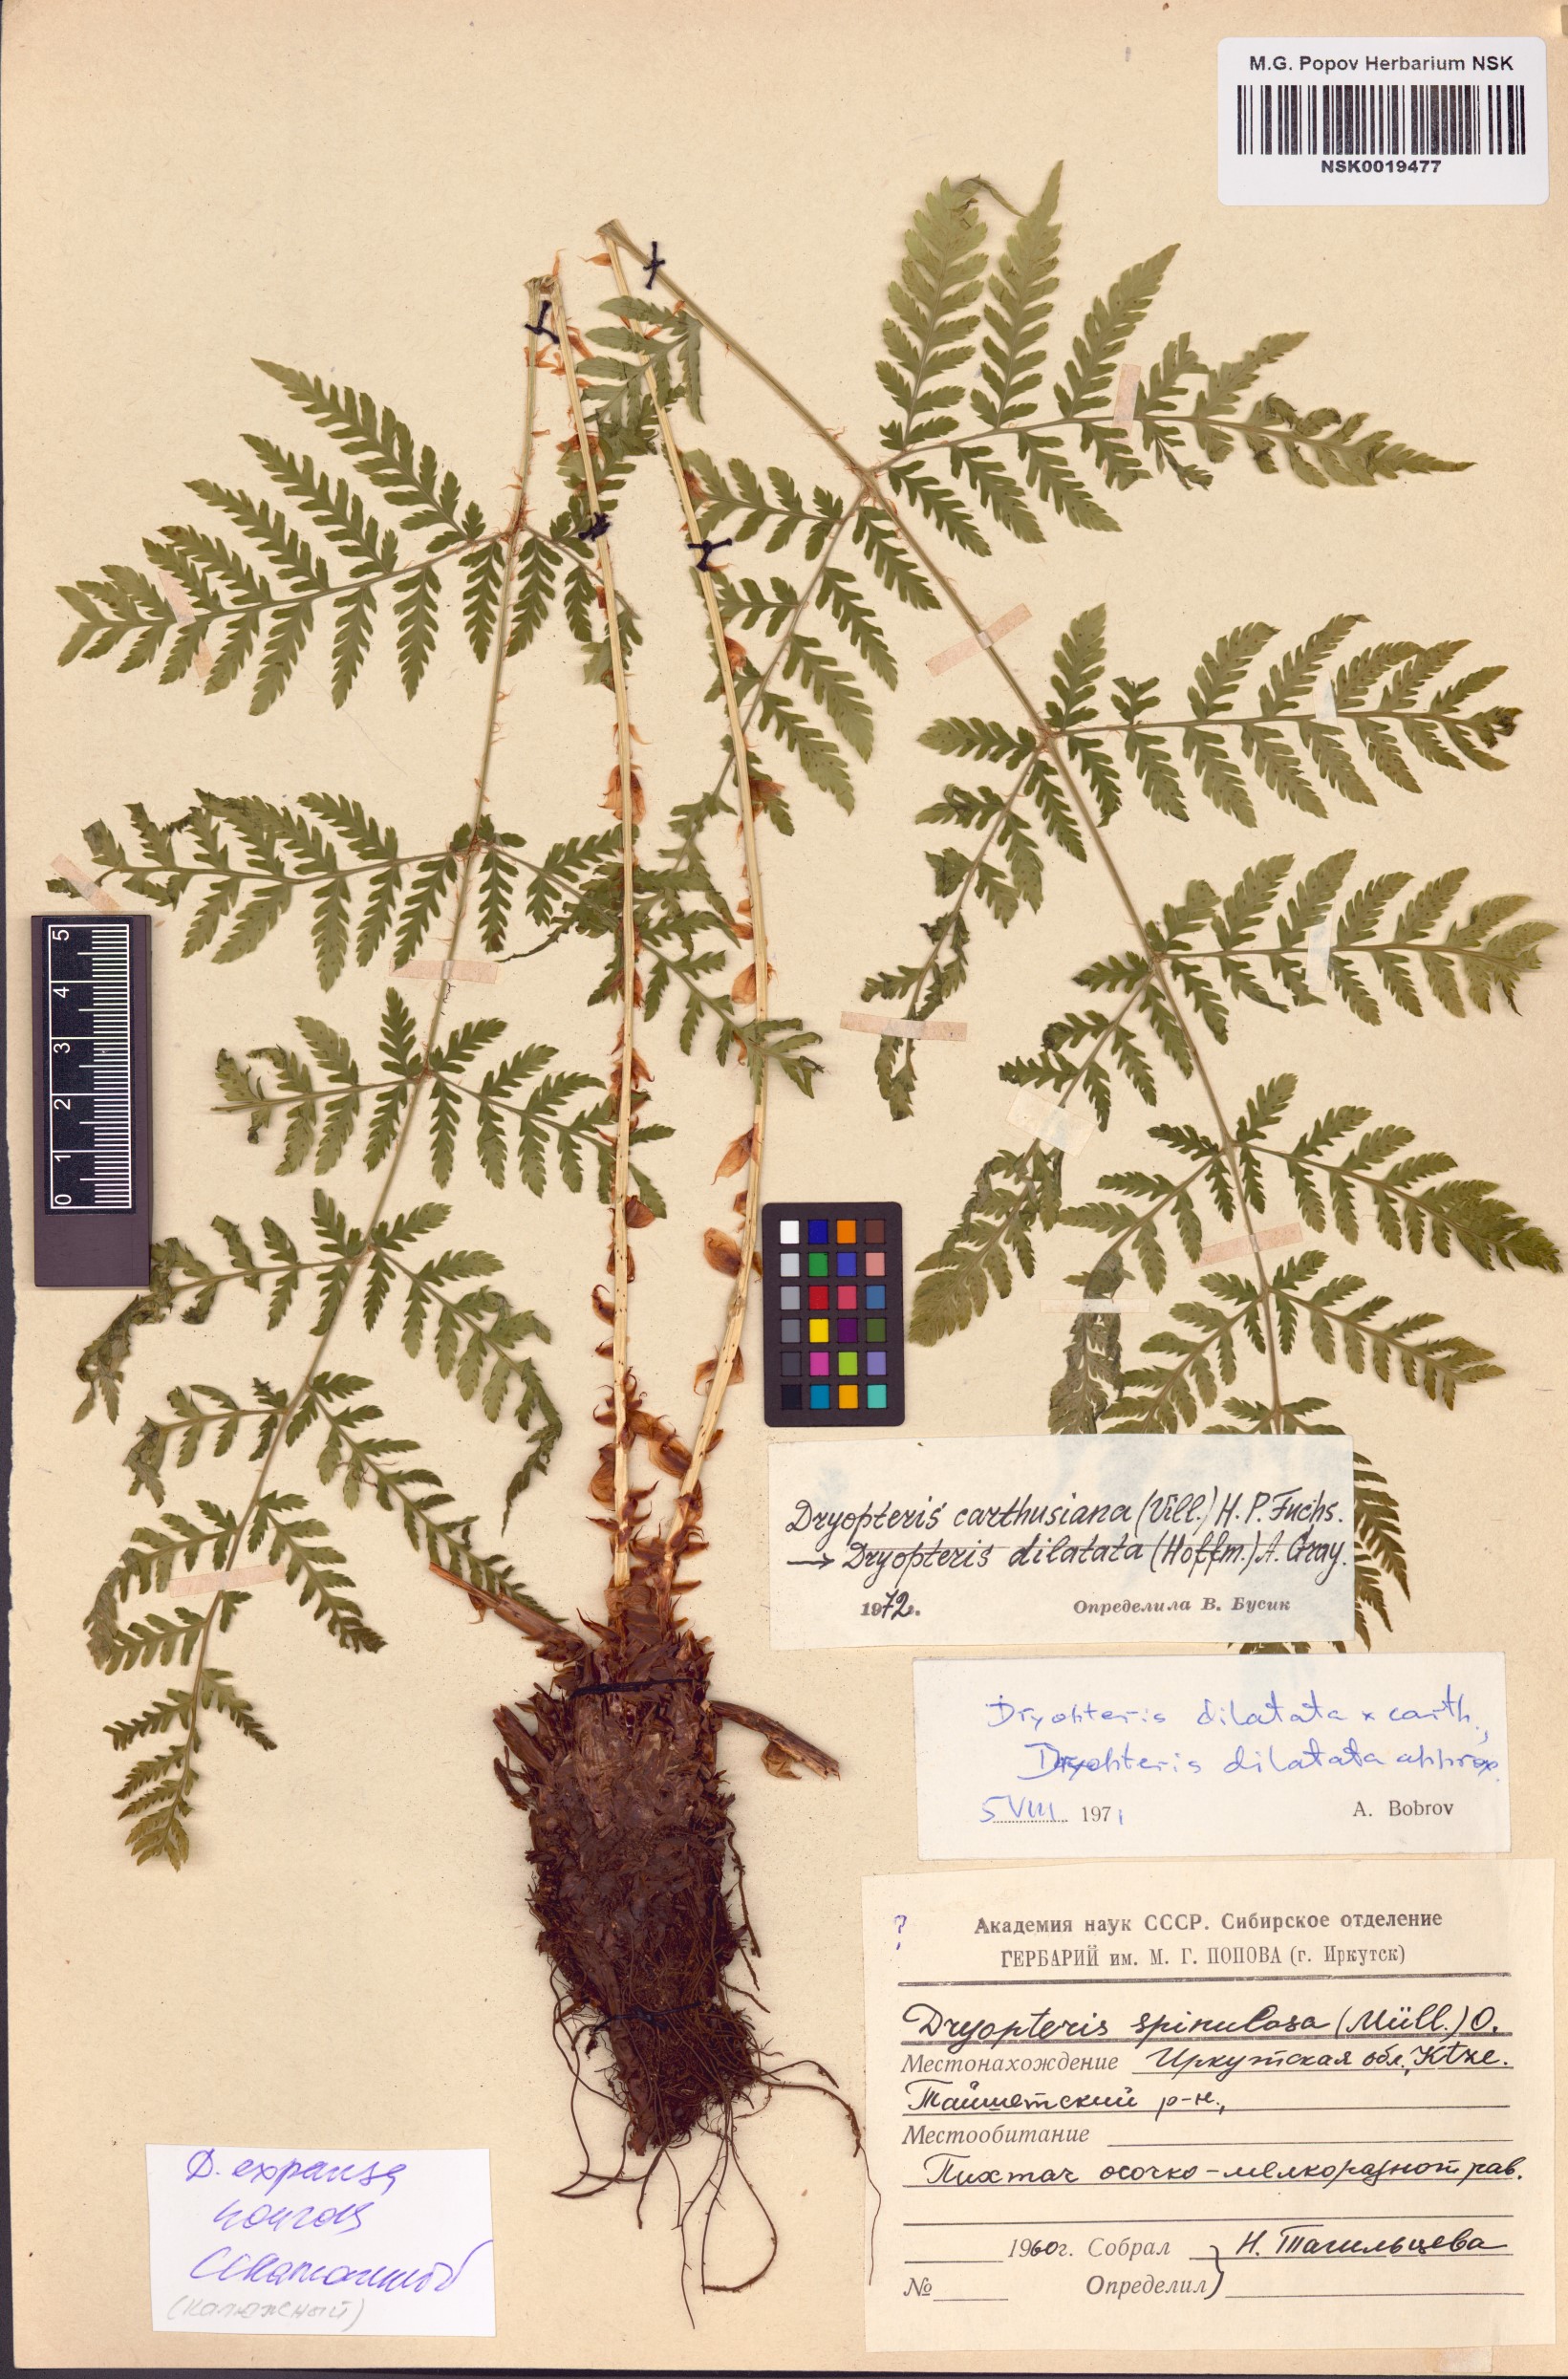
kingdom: Plantae
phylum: Tracheophyta
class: Polypodiopsida
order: Polypodiales
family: Dryopteridaceae
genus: Dryopteris
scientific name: Dryopteris expansa
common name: Northern buckler fern
